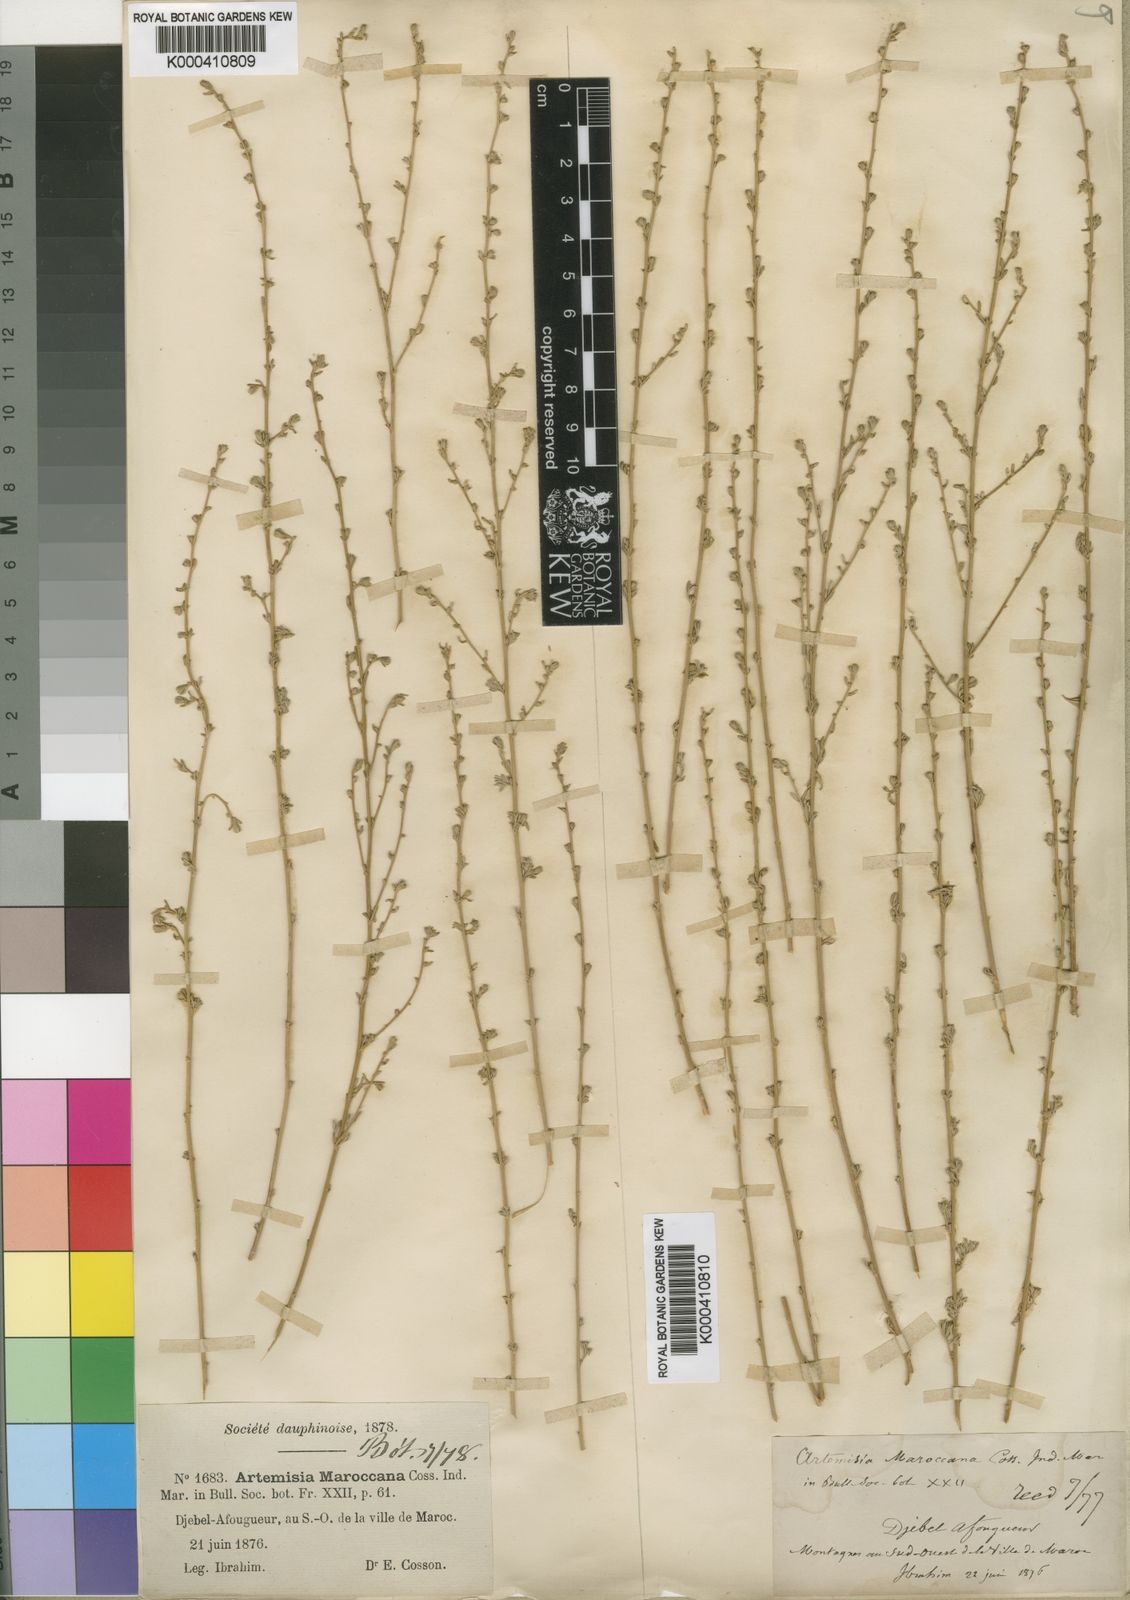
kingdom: Plantae
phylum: Tracheophyta
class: Magnoliopsida
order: Asterales
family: Asteraceae
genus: Artemisia
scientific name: Artemisia maroccana
